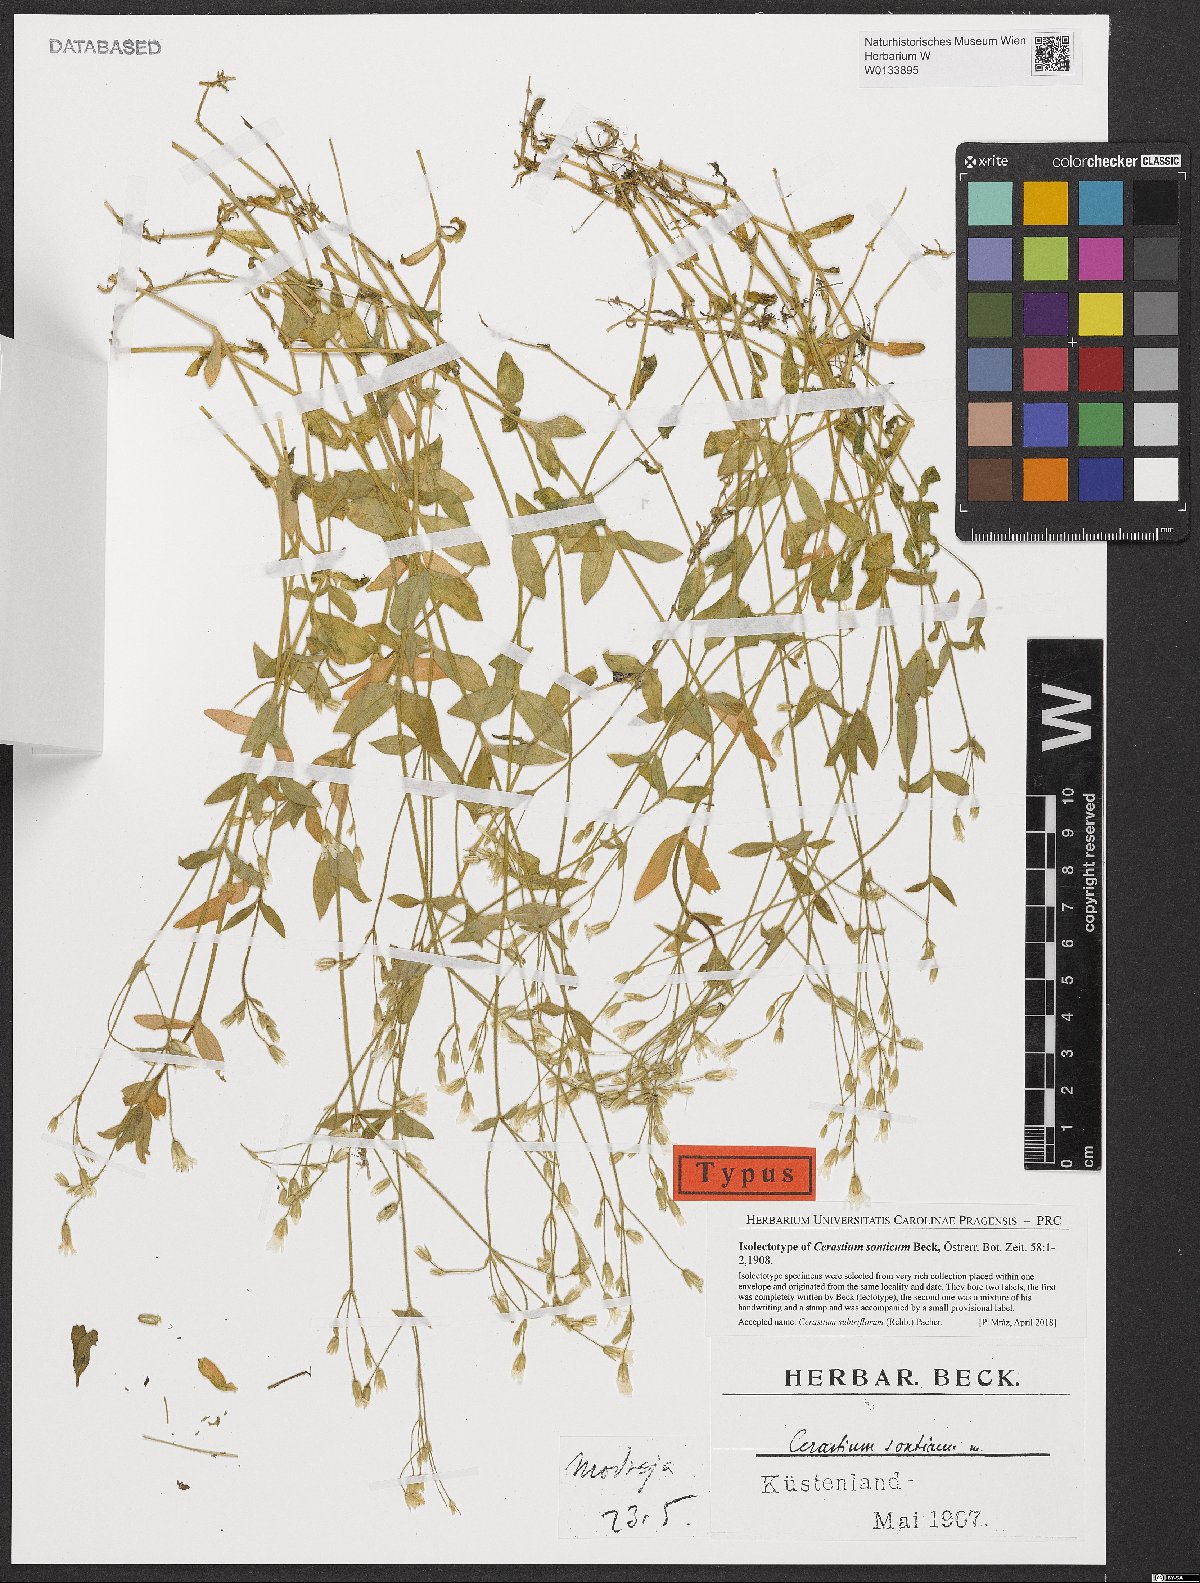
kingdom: Plantae
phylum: Tracheophyta
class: Magnoliopsida
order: Caryophyllales
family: Caryophyllaceae
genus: Cerastium
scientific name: Cerastium subtriflorum
